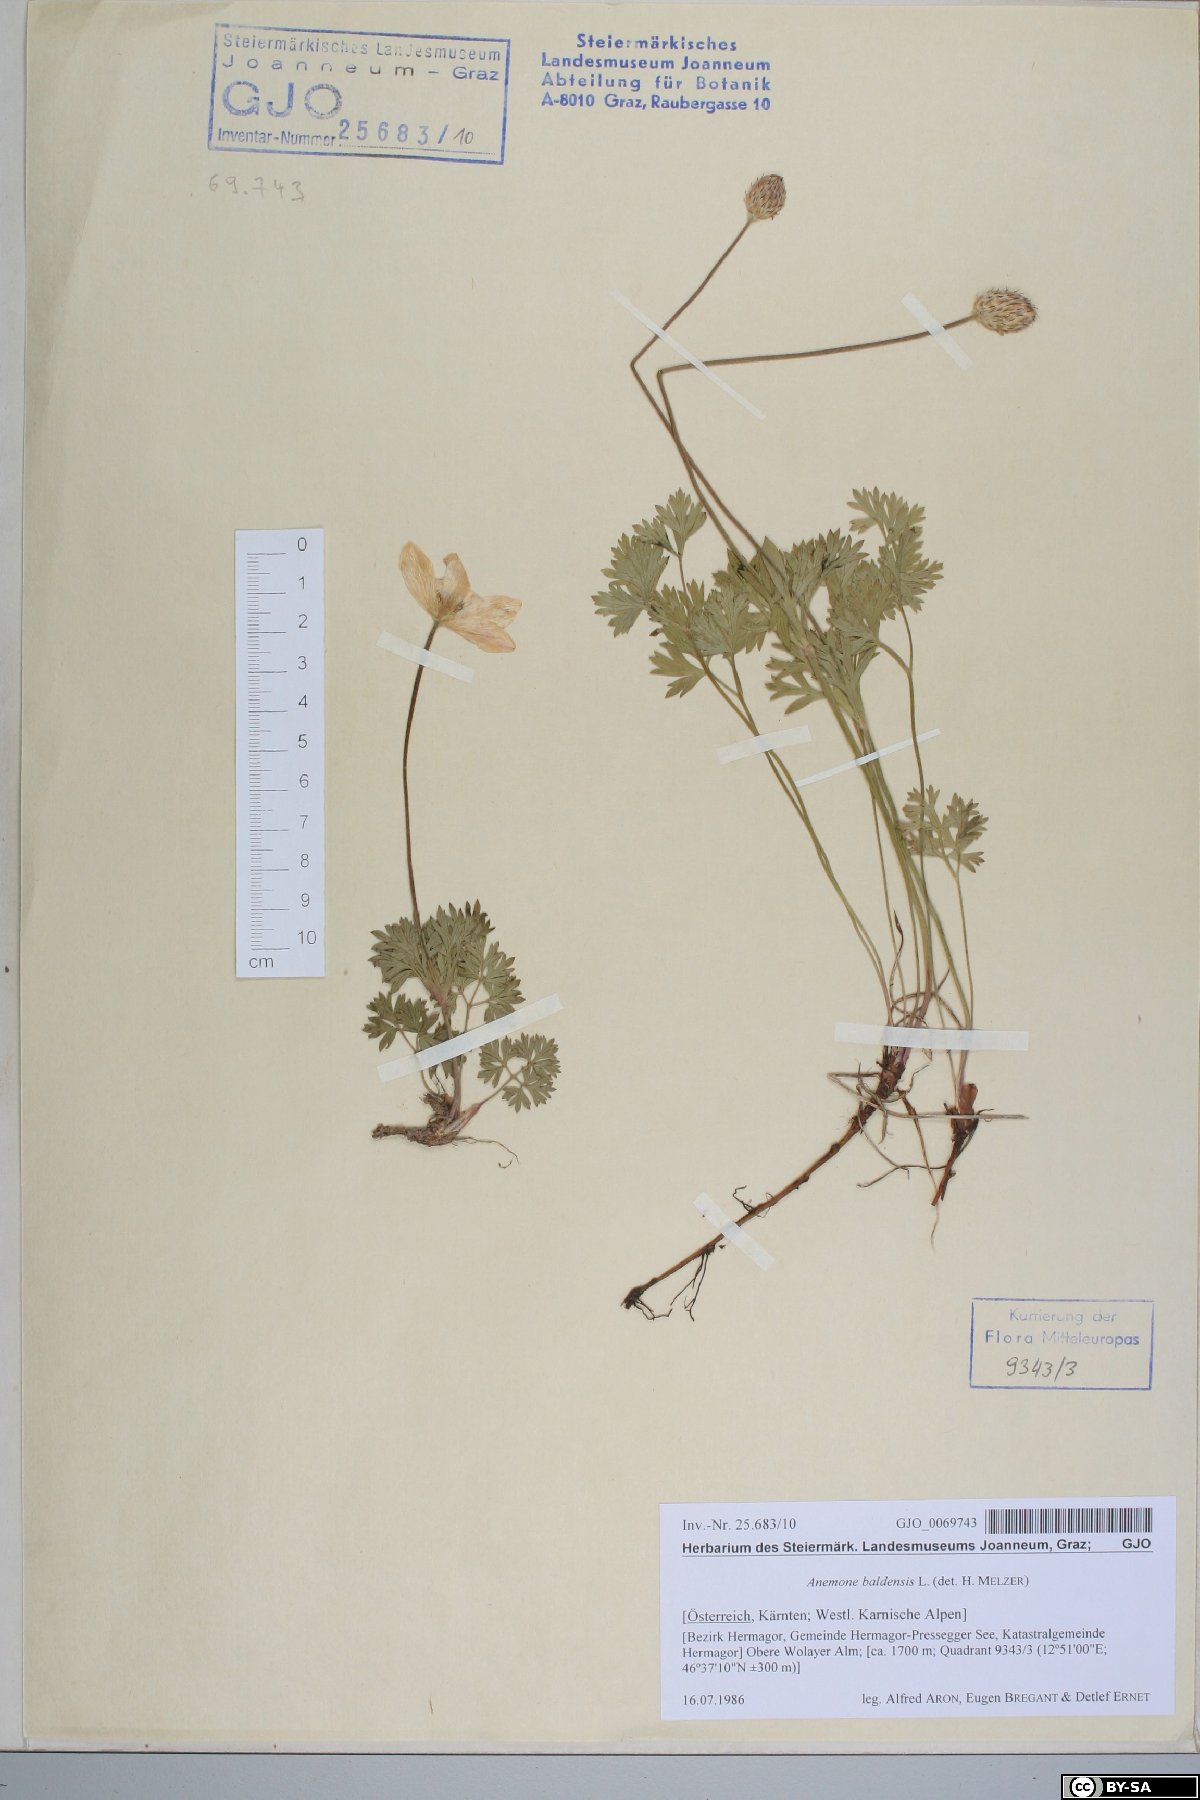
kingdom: Plantae
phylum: Tracheophyta
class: Magnoliopsida
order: Ranunculales
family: Ranunculaceae
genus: Anemone
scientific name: Anemone baldensis
